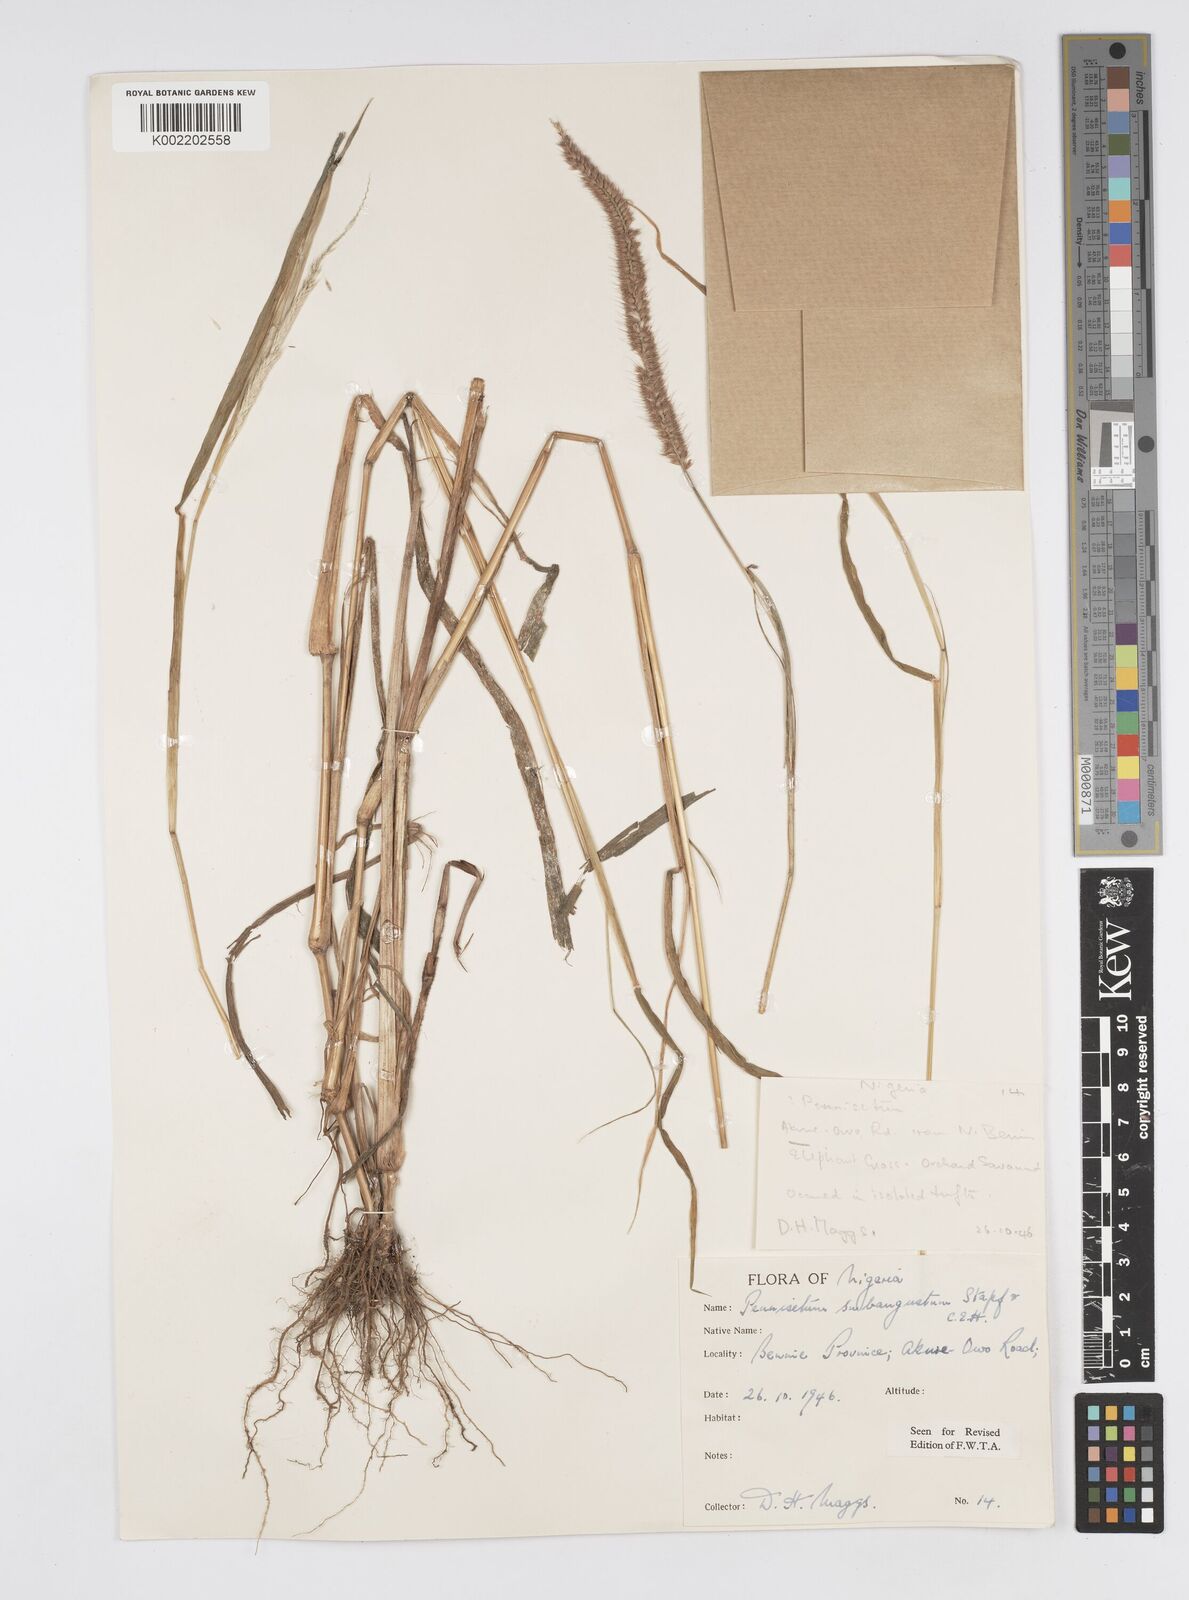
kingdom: Plantae
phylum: Tracheophyta
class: Liliopsida
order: Poales
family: Poaceae
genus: Setaria
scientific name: Setaria parviflora
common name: Knotroot bristle-grass
